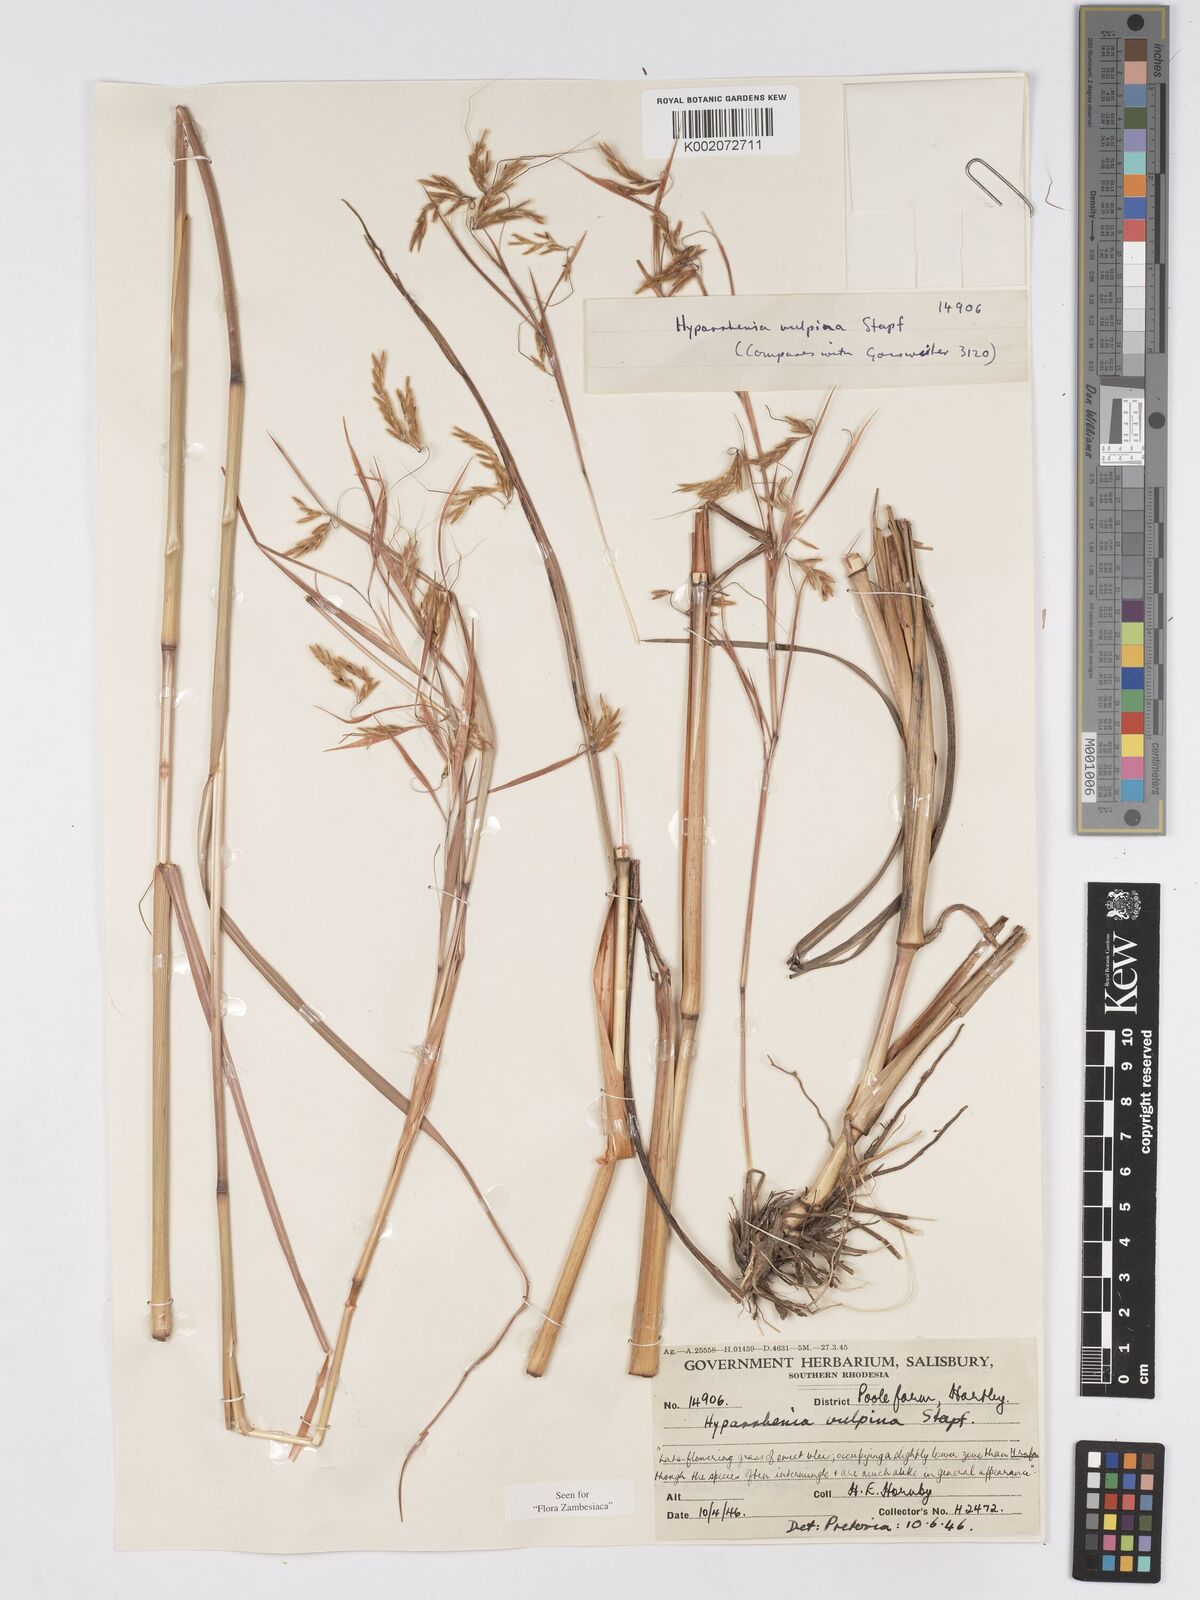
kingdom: Plantae
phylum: Tracheophyta
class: Liliopsida
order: Poales
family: Poaceae
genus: Hyparrhenia
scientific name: Hyparrhenia nyassae
